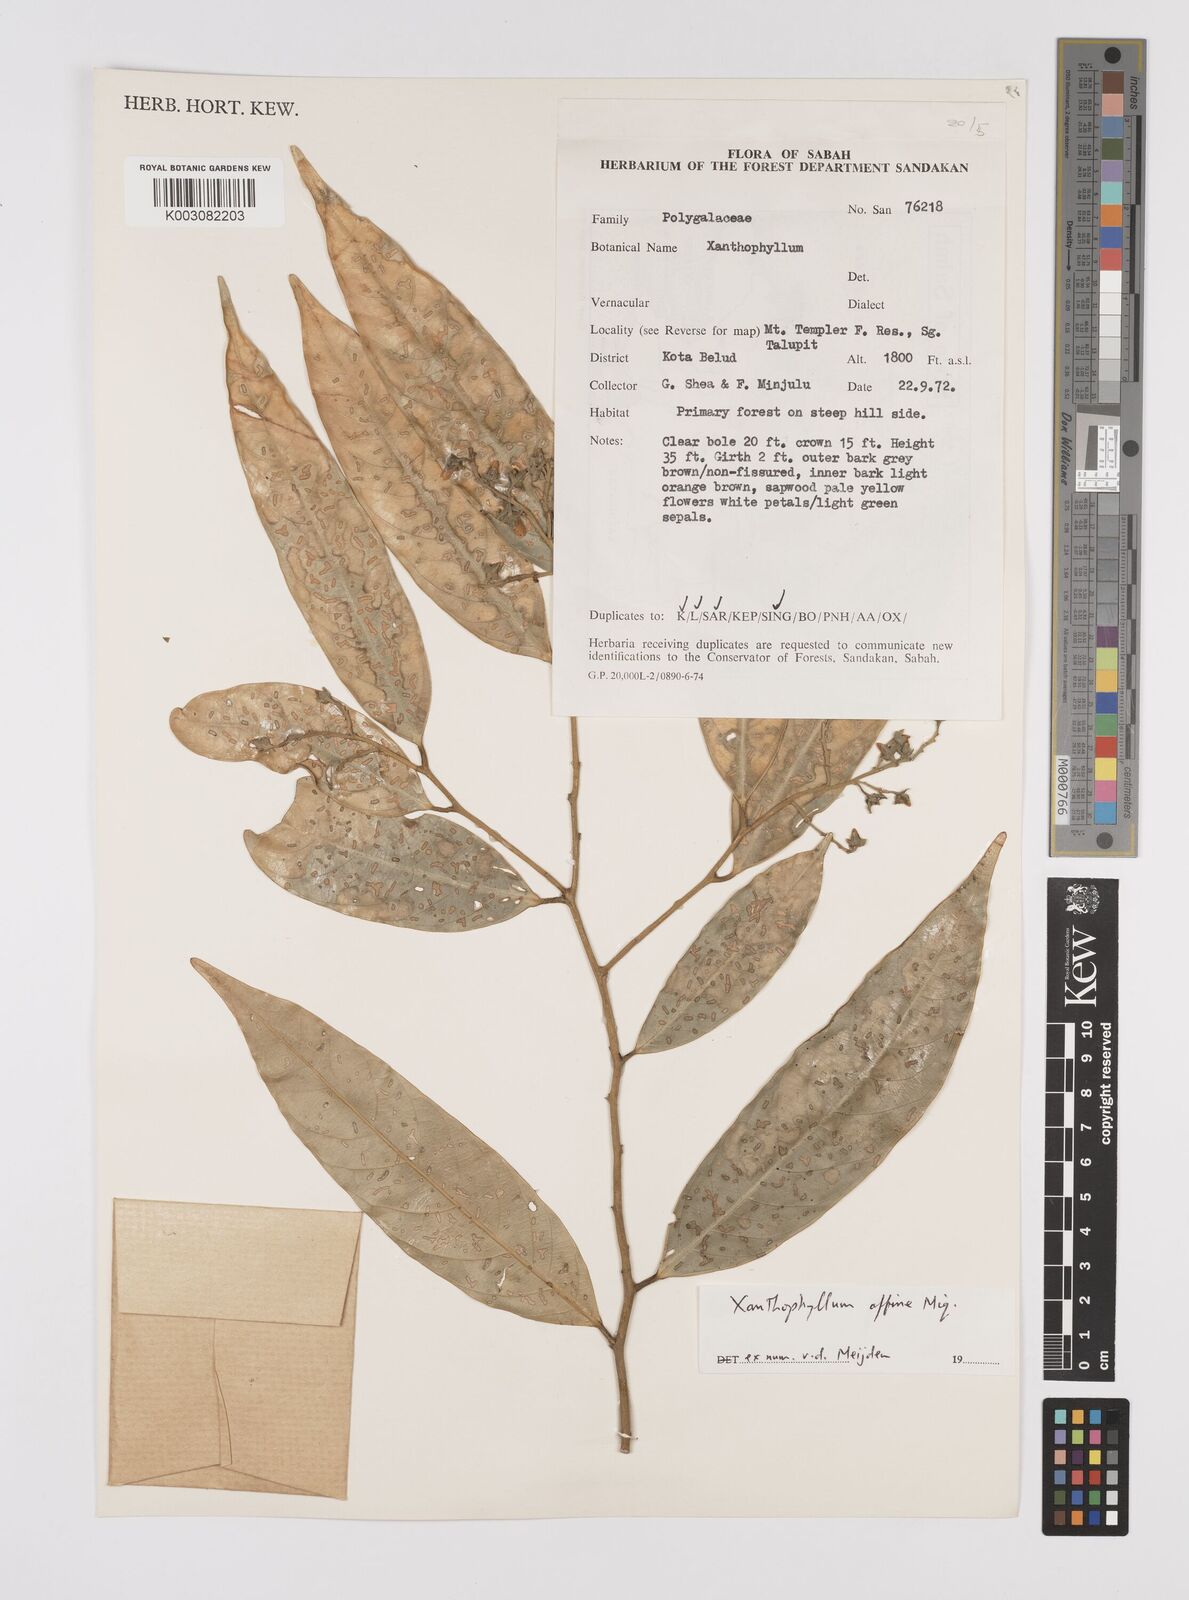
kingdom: Plantae
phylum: Tracheophyta
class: Magnoliopsida
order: Fabales
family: Polygalaceae
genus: Xanthophyllum
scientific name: Xanthophyllum flavescens
